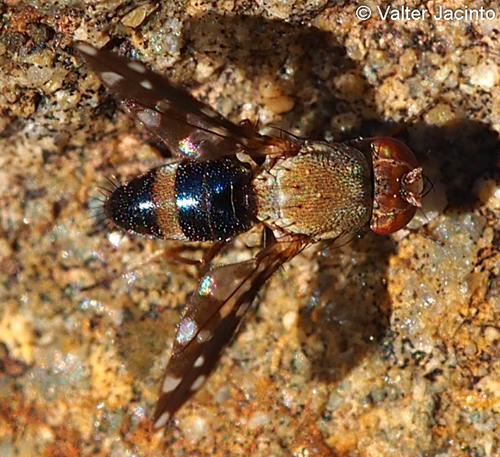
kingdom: Animalia
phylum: Arthropoda
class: Insecta
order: Diptera
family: Ephydridae
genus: Actocetor
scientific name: Actocetor indicus
